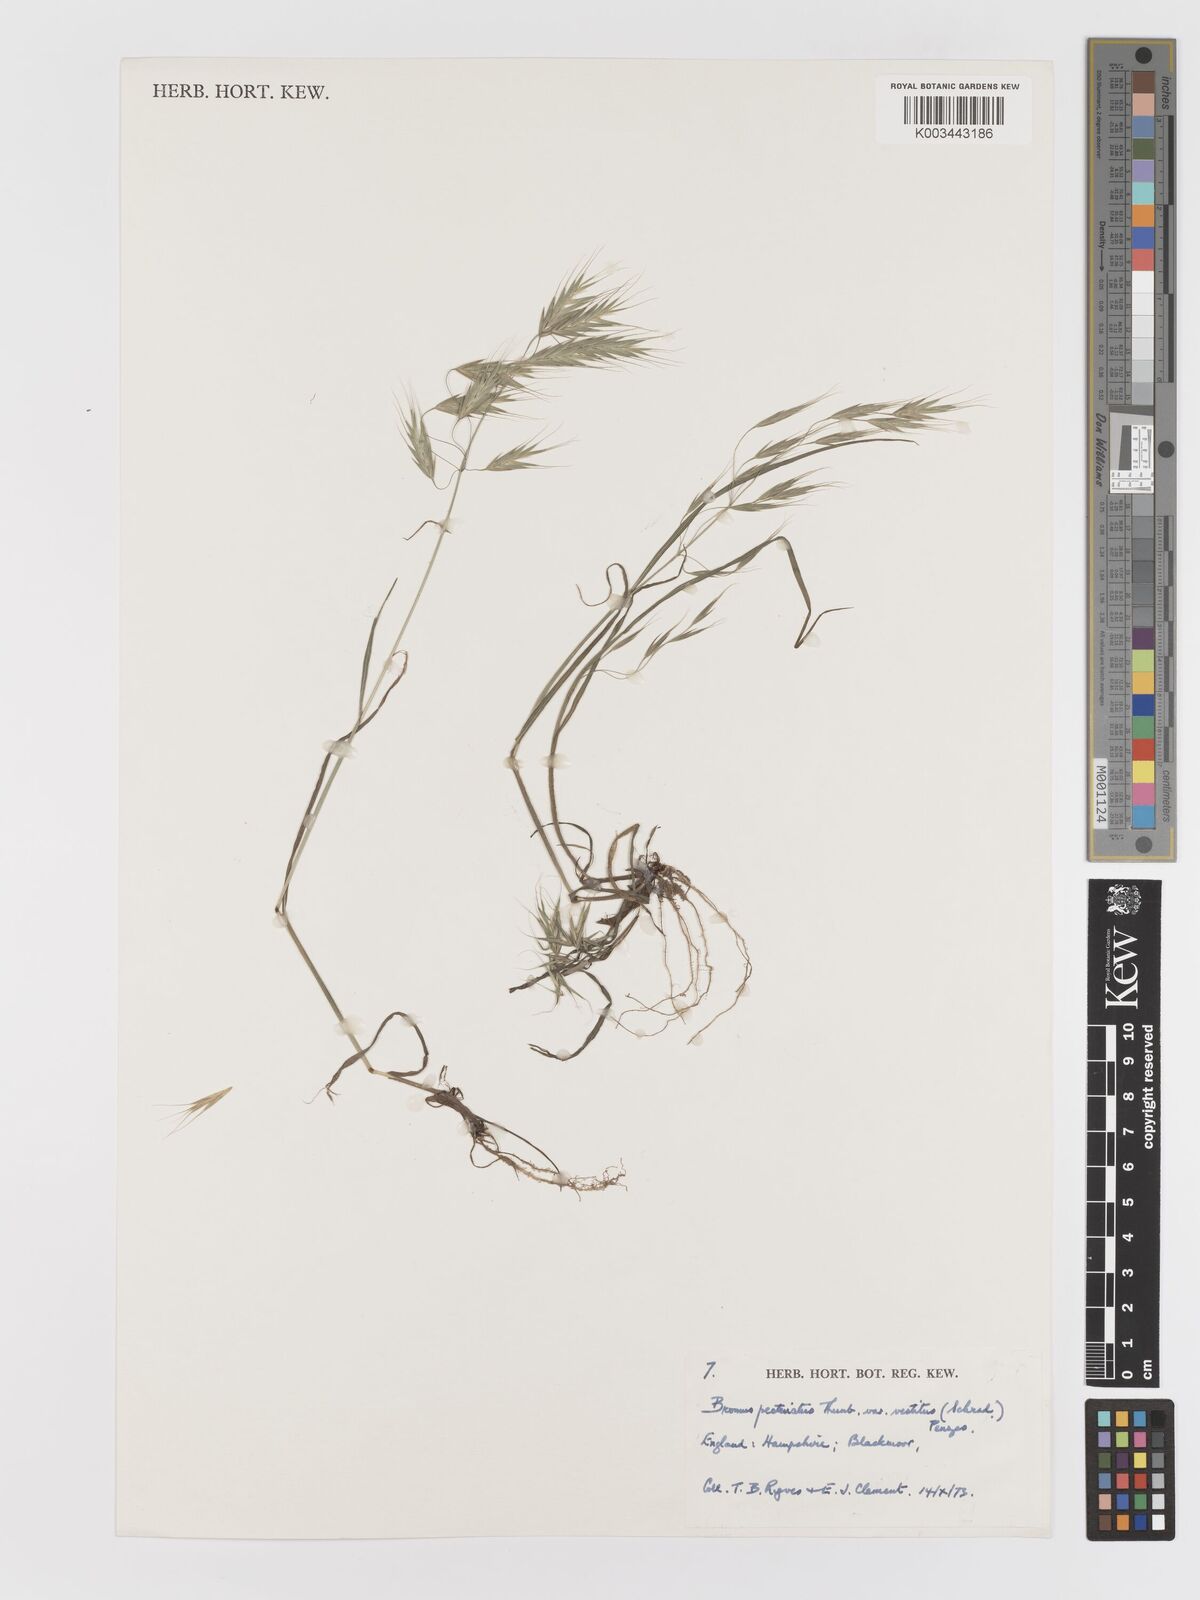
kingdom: Plantae
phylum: Tracheophyta
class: Liliopsida
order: Poales
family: Poaceae
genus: Bromus
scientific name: Bromus pectinatus
